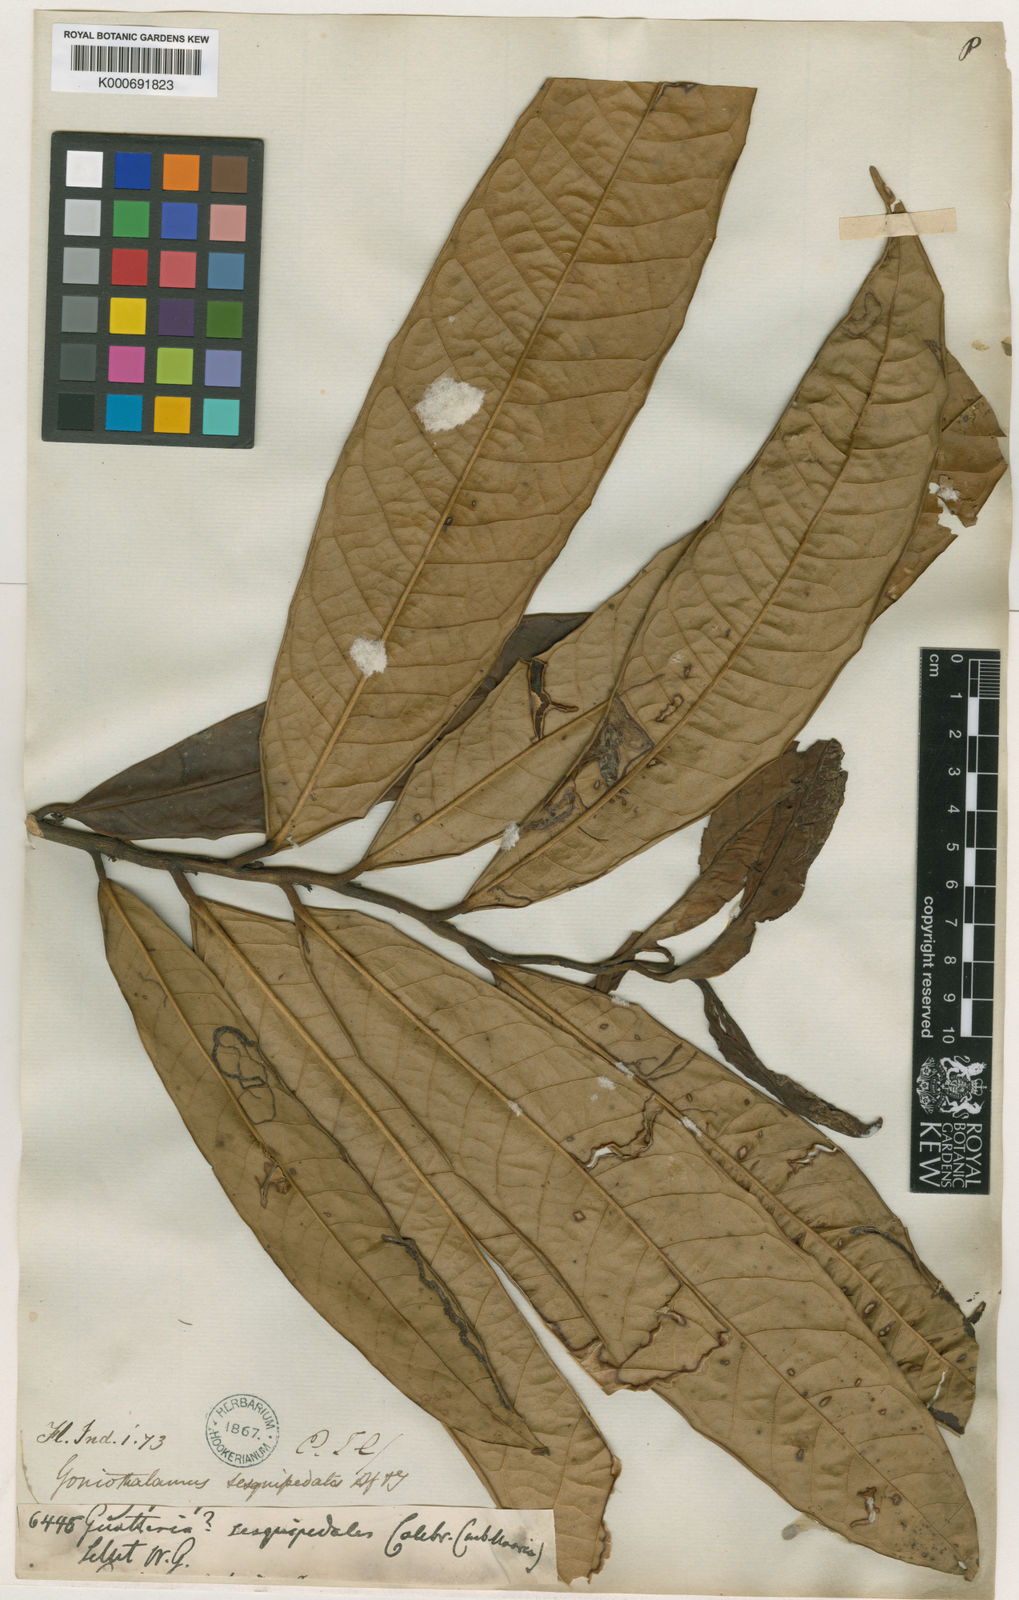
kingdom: Plantae
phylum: Tracheophyta
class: Magnoliopsida
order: Magnoliales
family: Annonaceae
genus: Goniothalamus
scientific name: Goniothalamus sesquipedalis
